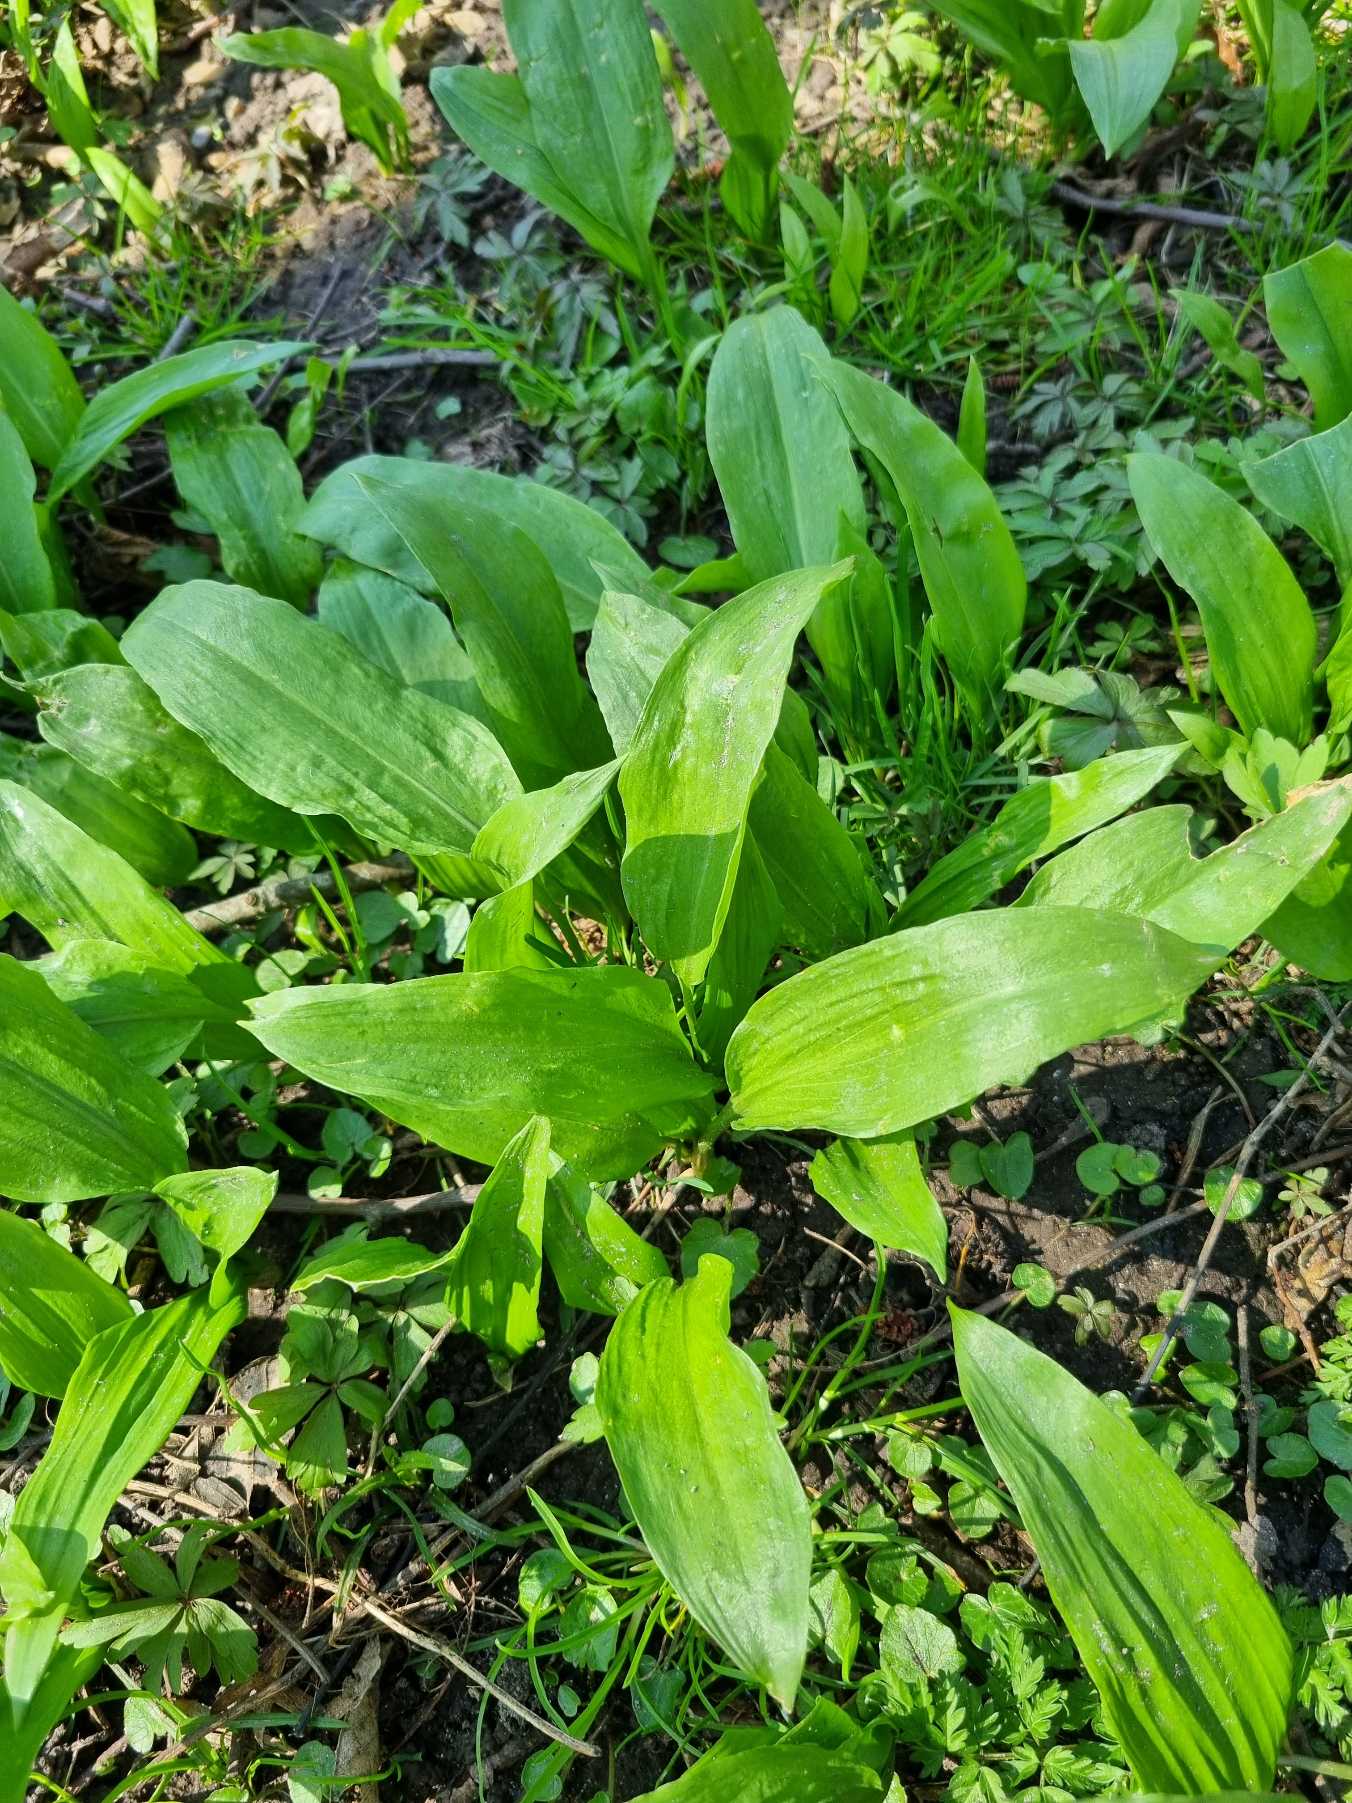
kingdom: Plantae
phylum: Tracheophyta
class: Liliopsida
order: Asparagales
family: Amaryllidaceae
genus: Allium
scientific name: Allium ursinum
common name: Rams-løg
